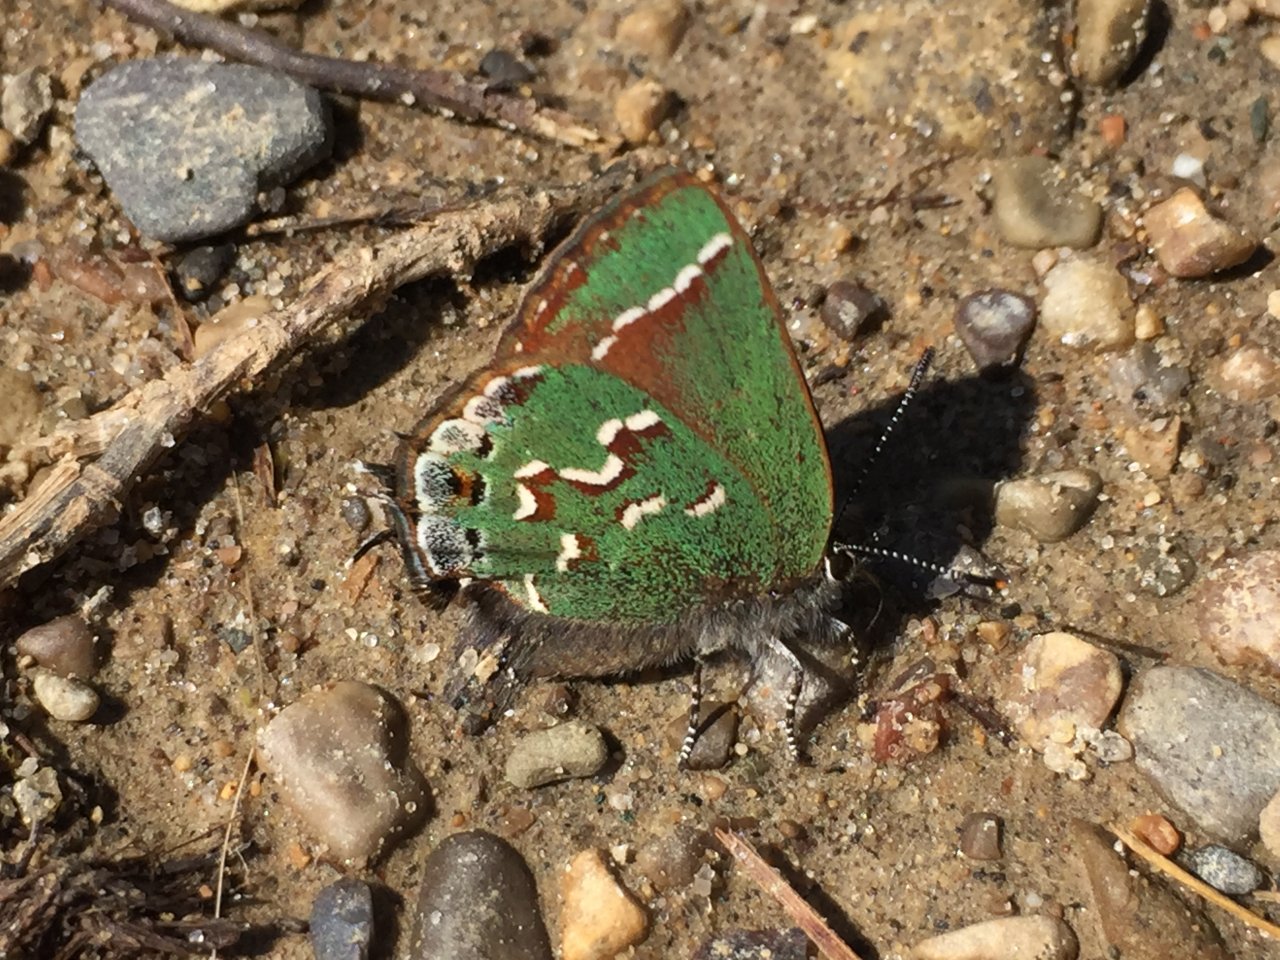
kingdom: Animalia
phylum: Arthropoda
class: Insecta
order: Lepidoptera
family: Lycaenidae
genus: Mitoura
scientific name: Mitoura gryneus
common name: Juniper Hairstreak
